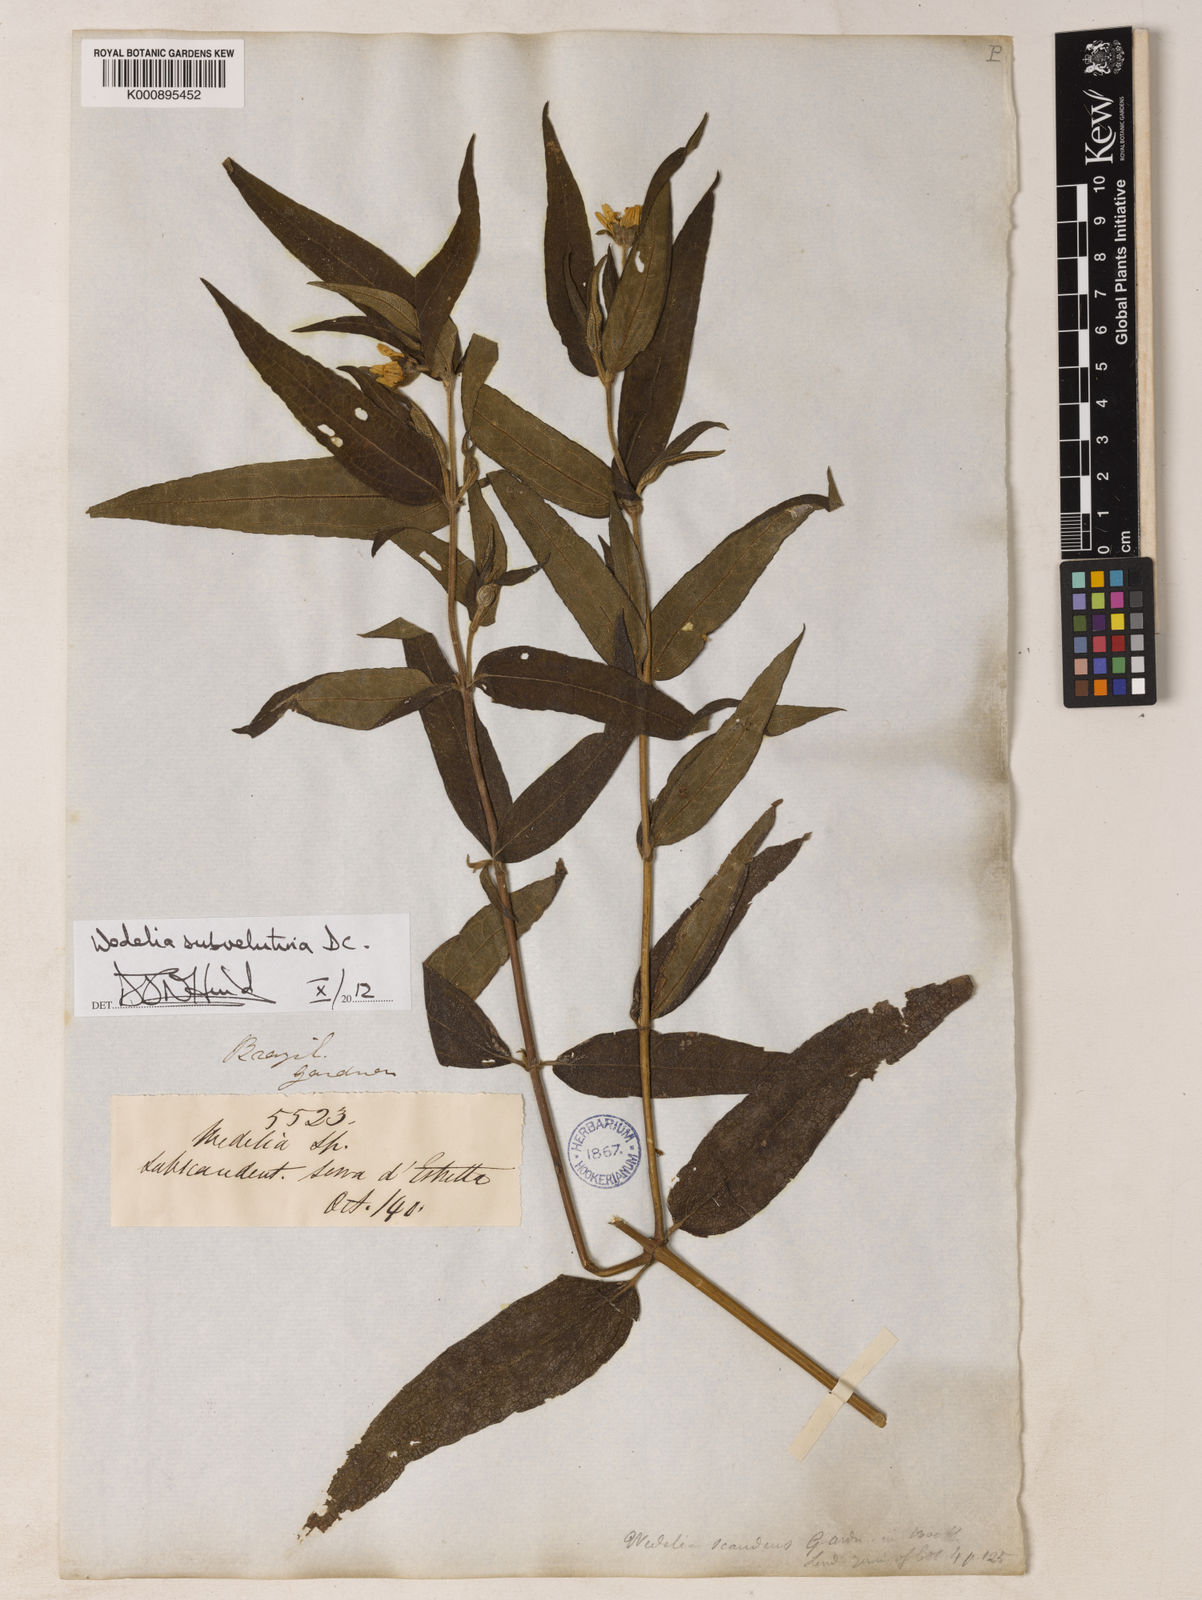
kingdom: Plantae
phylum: Tracheophyta
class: Magnoliopsida
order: Asterales
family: Asteraceae
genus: Wedelia
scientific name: Wedelia subvelutina
